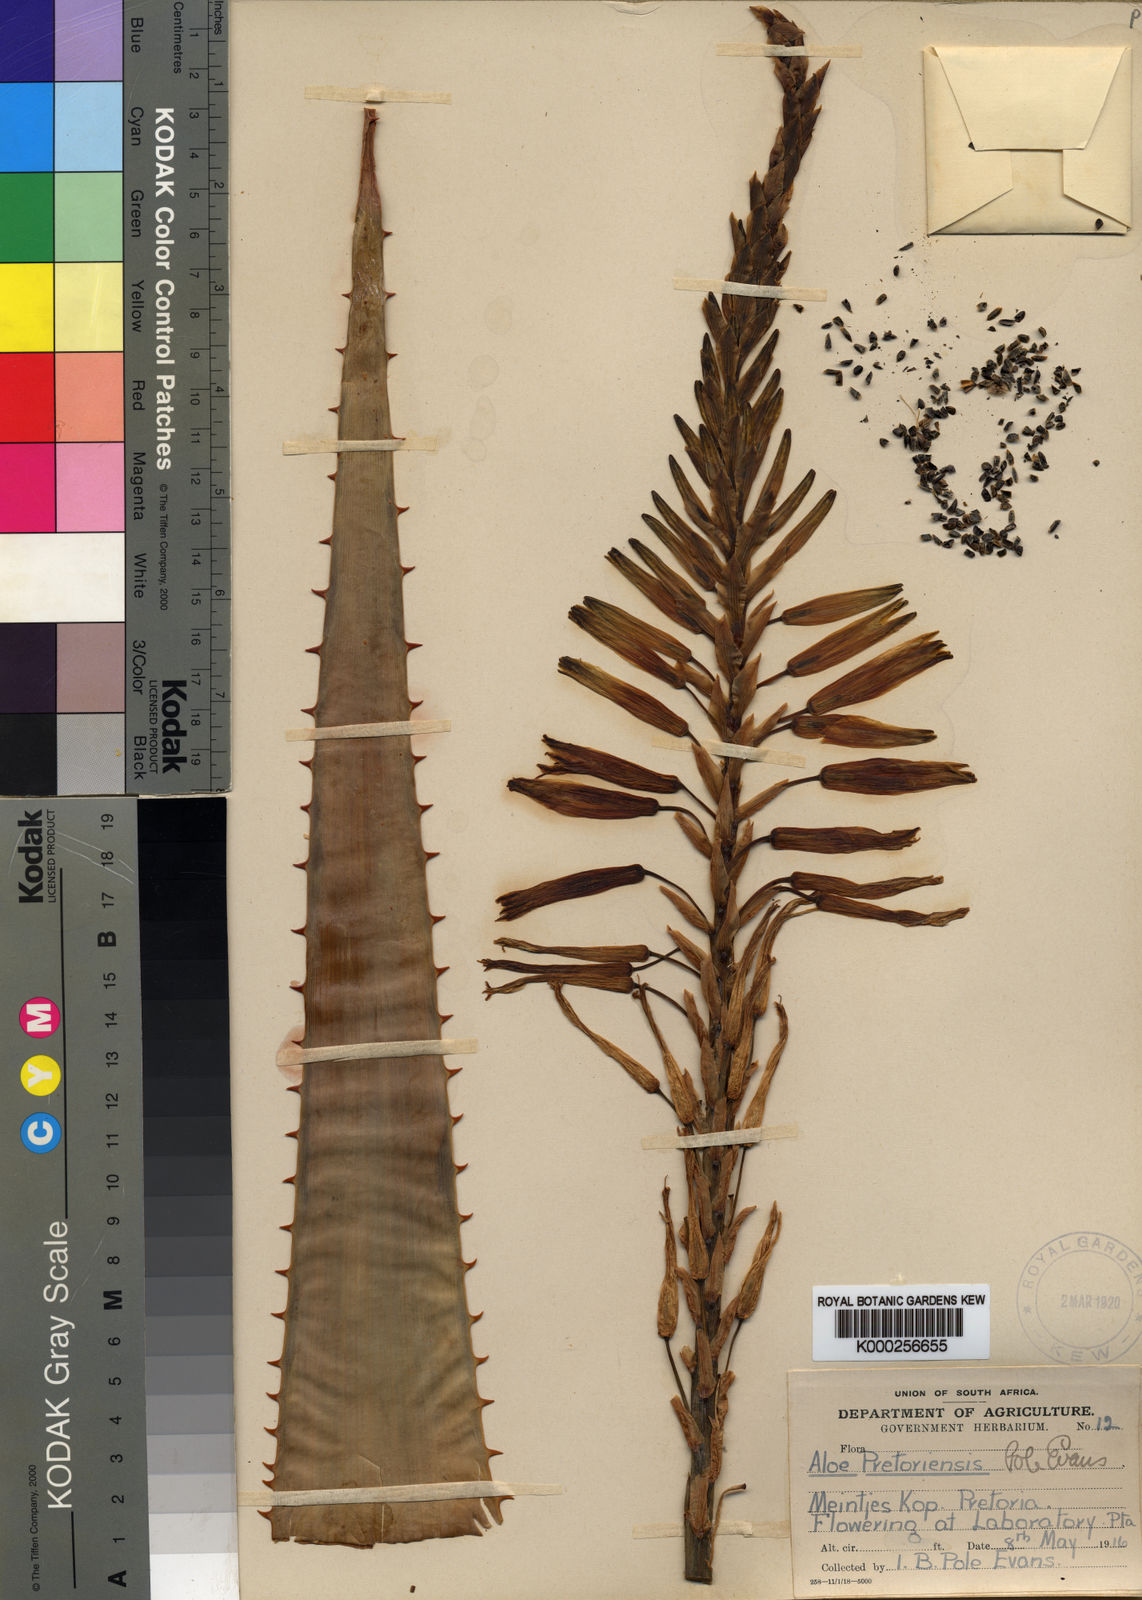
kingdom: Plantae
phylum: Tracheophyta
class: Liliopsida
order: Asparagales
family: Asphodelaceae
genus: Aloe
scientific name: Aloe pretoriensis
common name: Pretoria aloe
